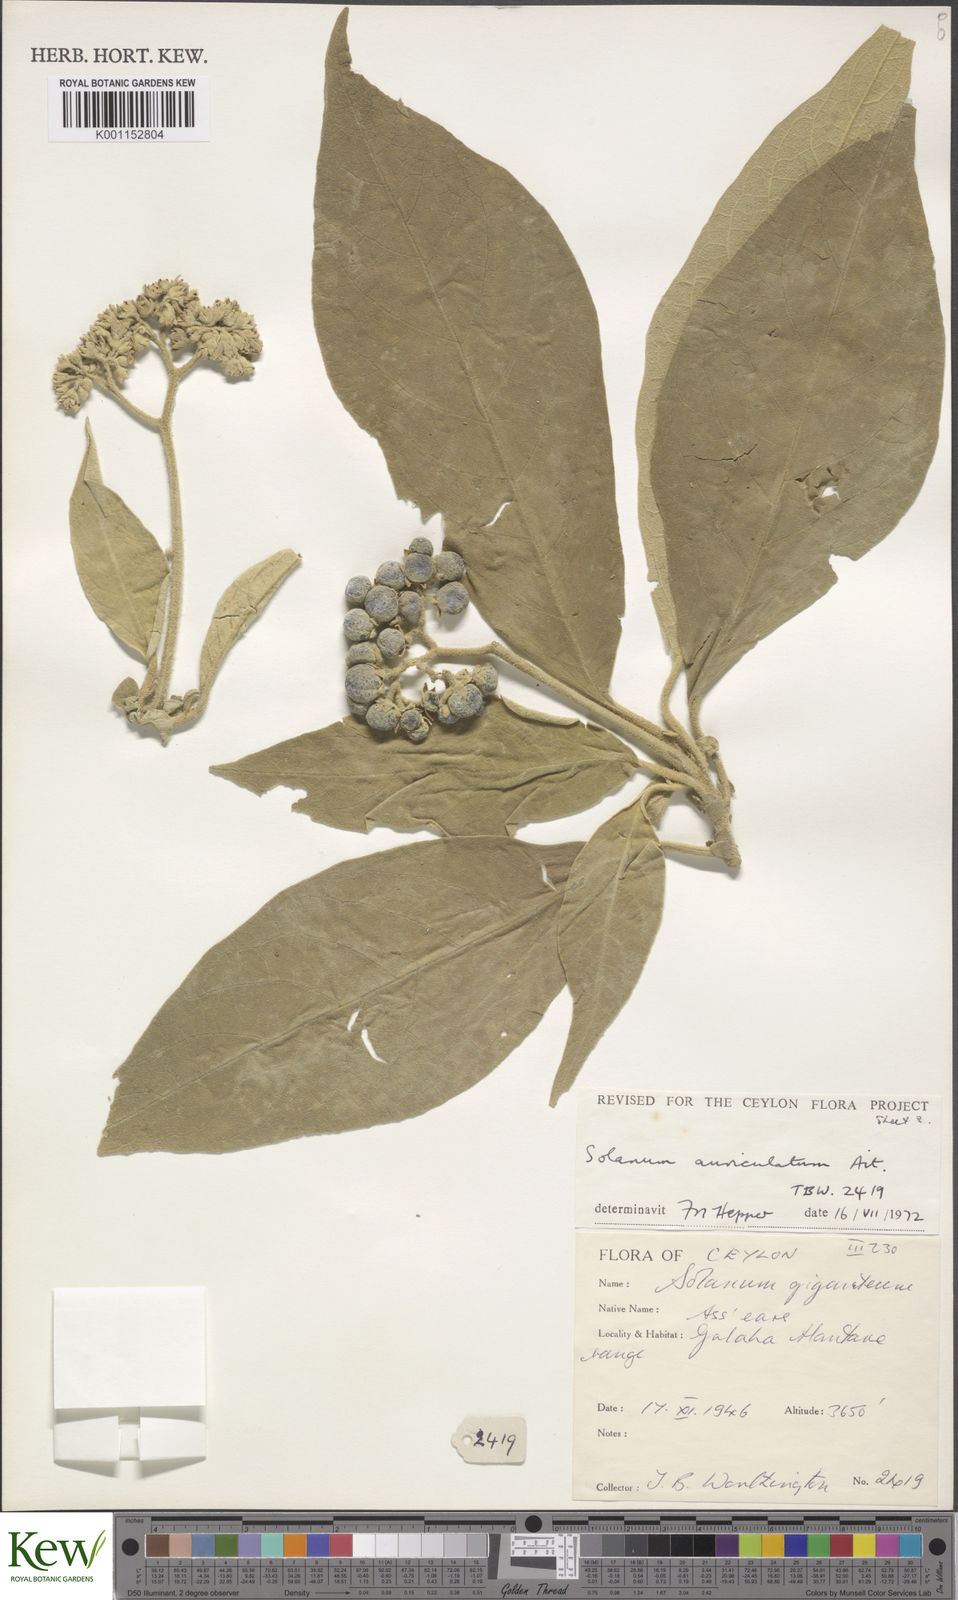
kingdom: Plantae
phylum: Tracheophyta
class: Magnoliopsida
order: Solanales
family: Solanaceae
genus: Solanum
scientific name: Solanum mauritianum
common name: Earleaf nightshade
